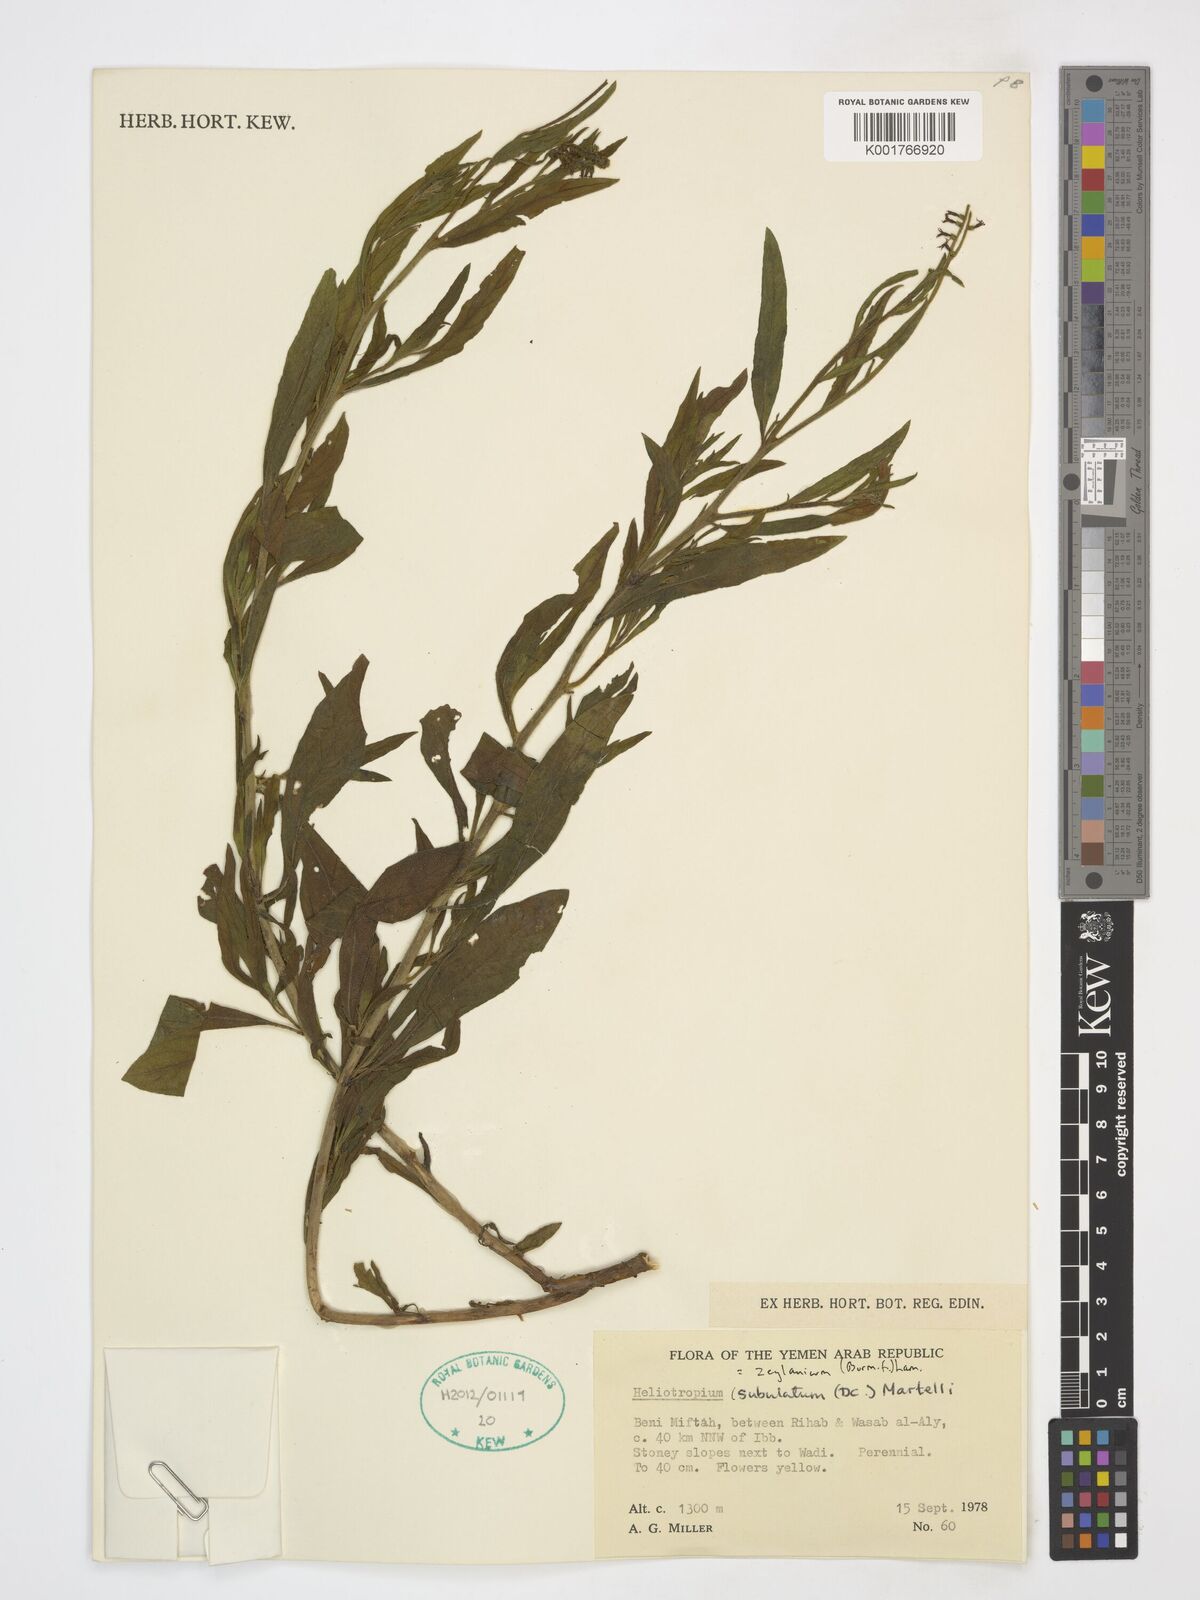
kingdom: Plantae
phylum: Tracheophyta
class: Magnoliopsida
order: Boraginales
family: Heliotropiaceae
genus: Heliotropium
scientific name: Heliotropium zeylanicum
